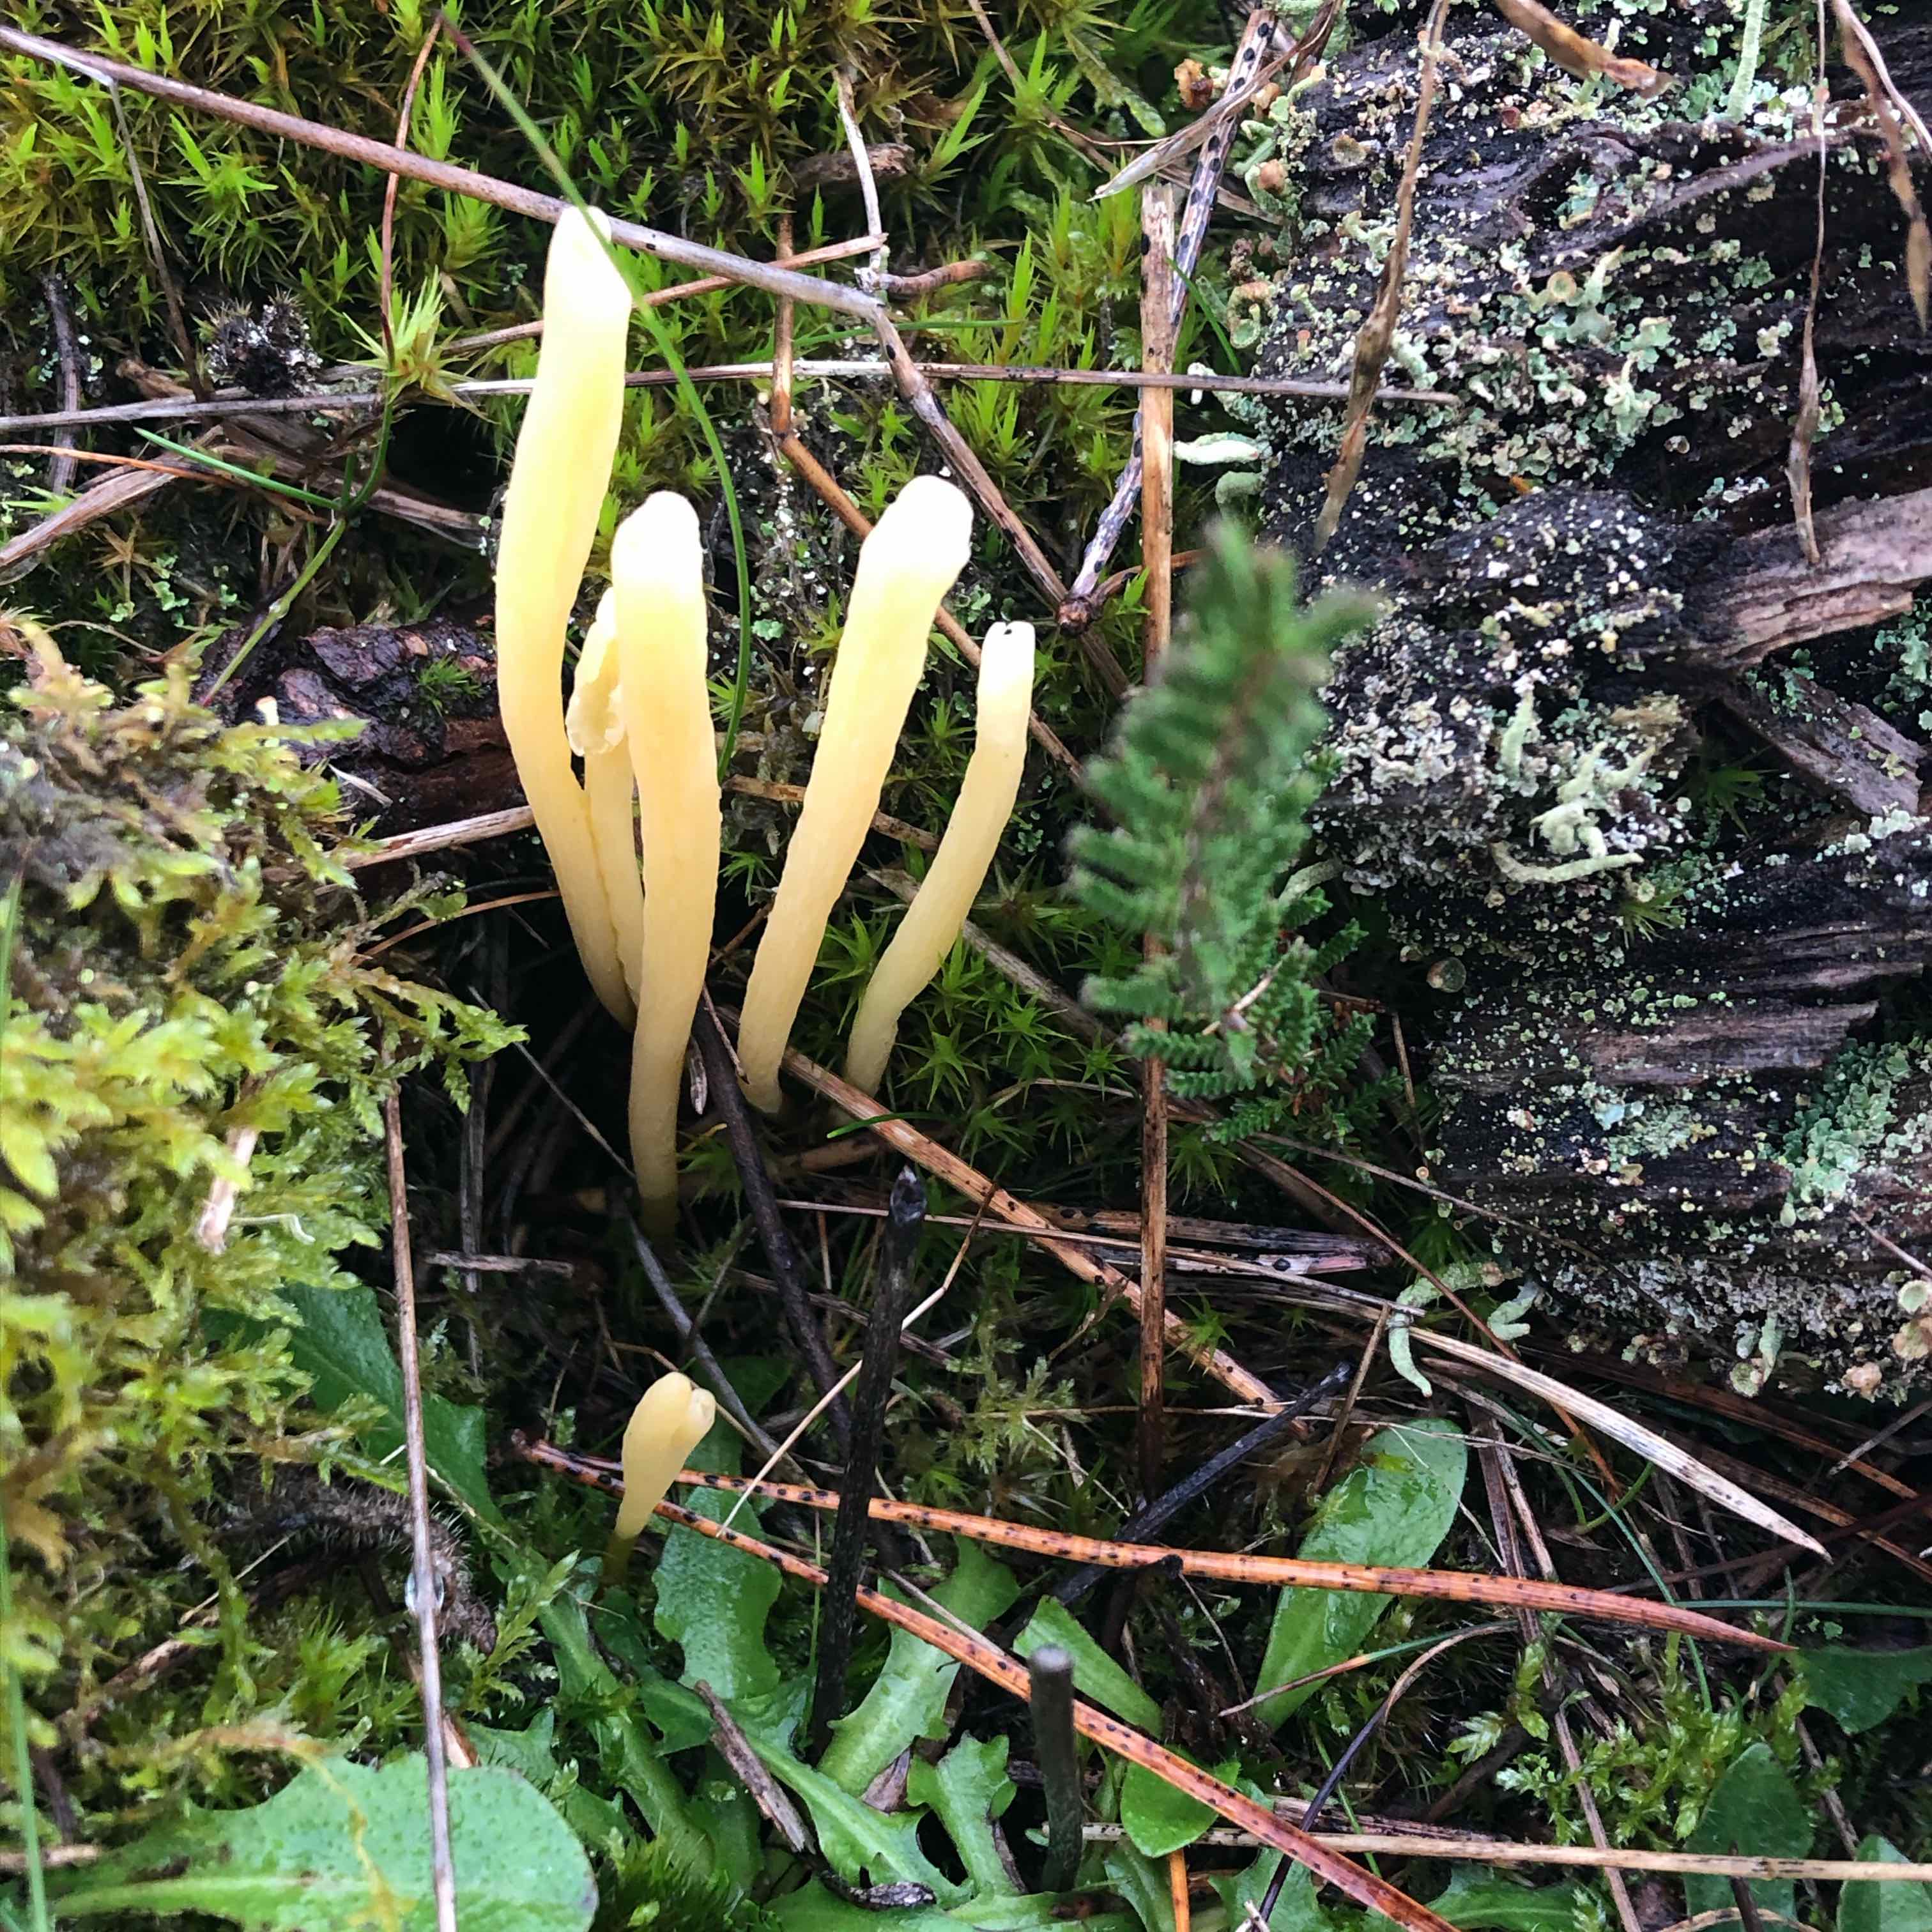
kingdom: Fungi
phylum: Basidiomycota
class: Agaricomycetes
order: Agaricales
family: Clavariaceae
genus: Clavaria
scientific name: Clavaria argillacea
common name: lerfarvet køllesvamp
